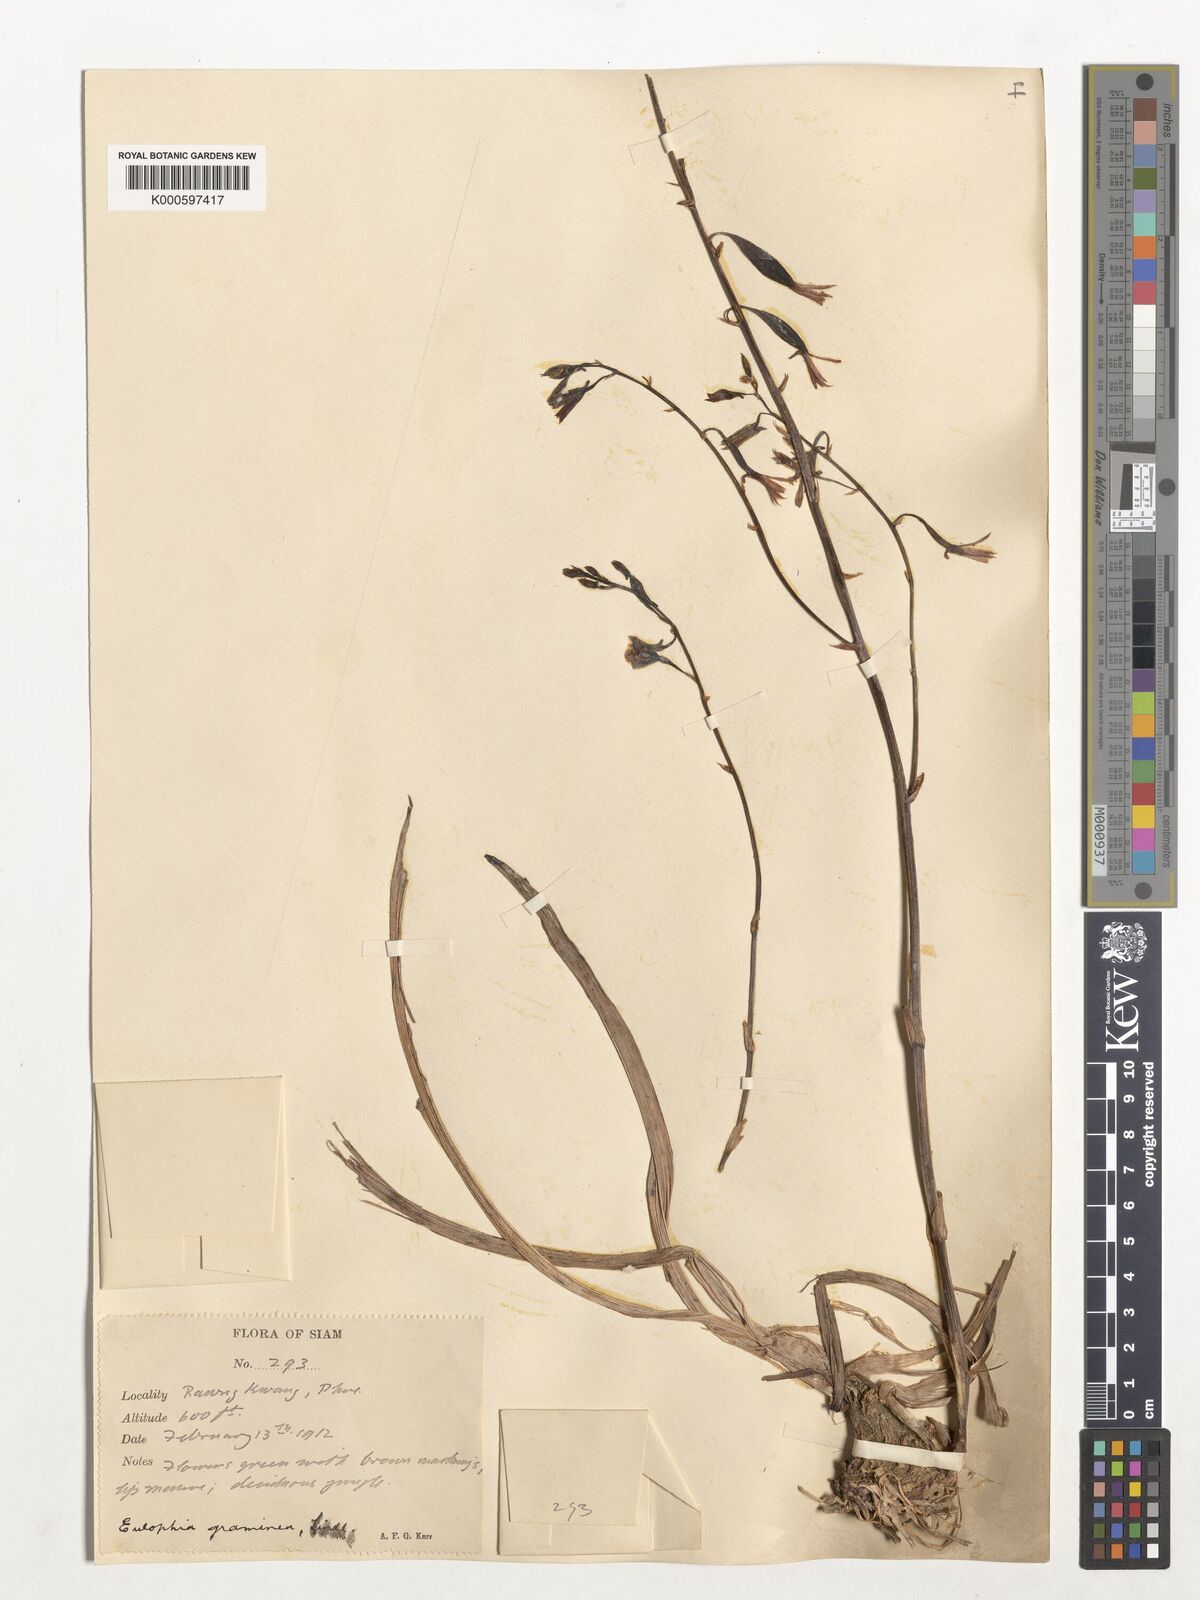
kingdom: Plantae
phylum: Tracheophyta
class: Liliopsida
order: Asparagales
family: Orchidaceae
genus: Eulophia
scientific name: Eulophia graminea
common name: Orchid
